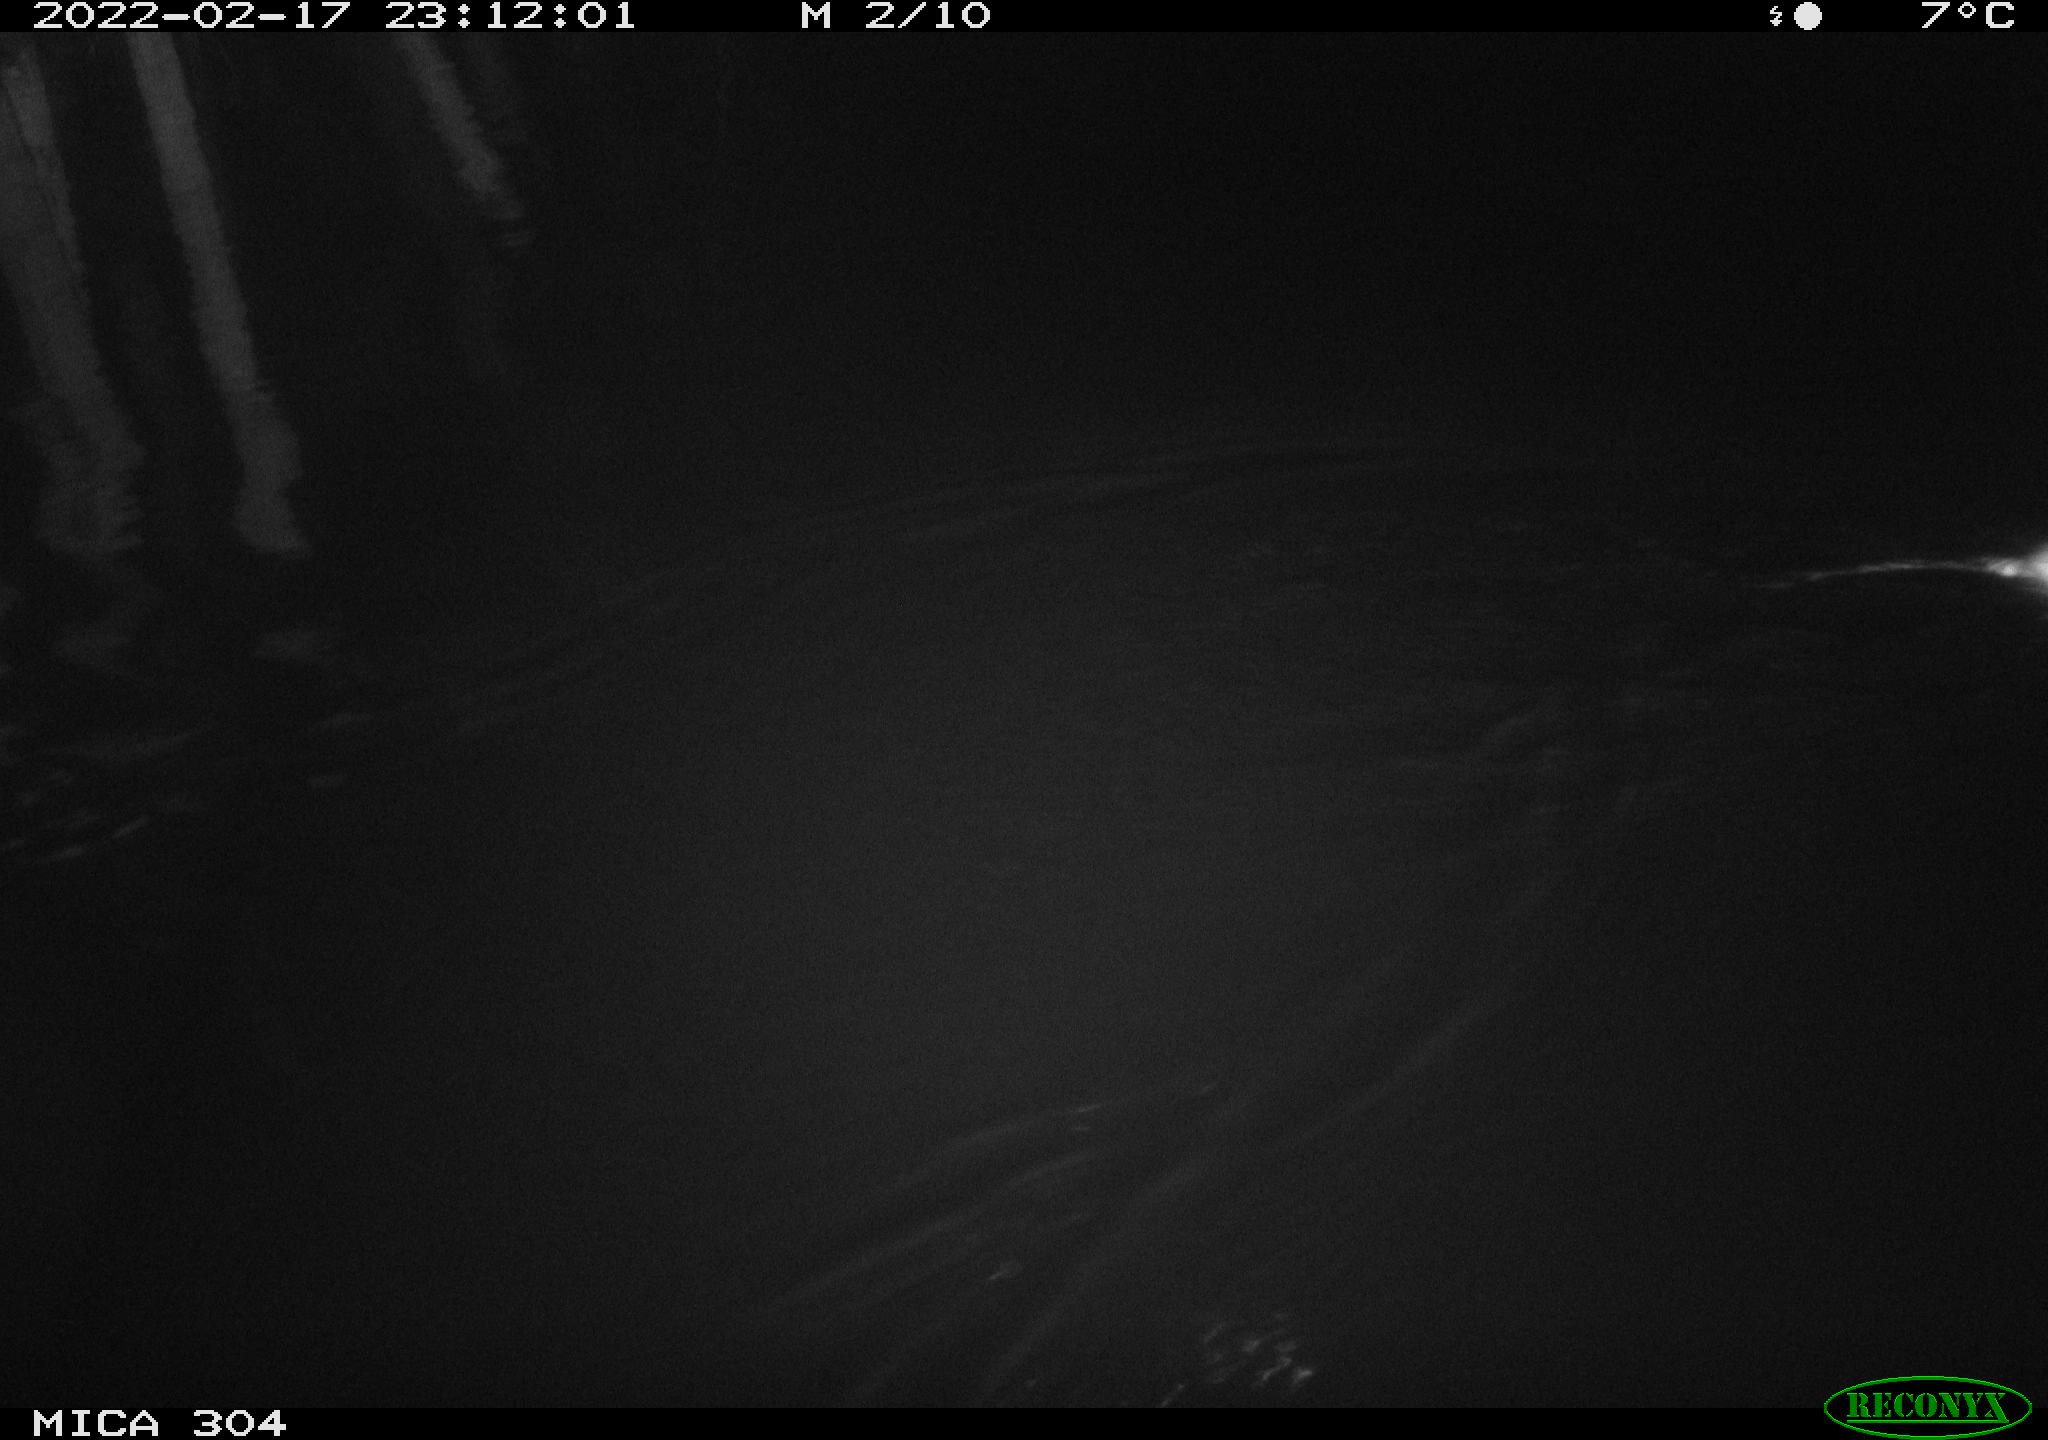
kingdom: Animalia
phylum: Chordata
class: Mammalia
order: Rodentia
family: Muridae
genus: Rattus
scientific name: Rattus norvegicus
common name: Brown rat
